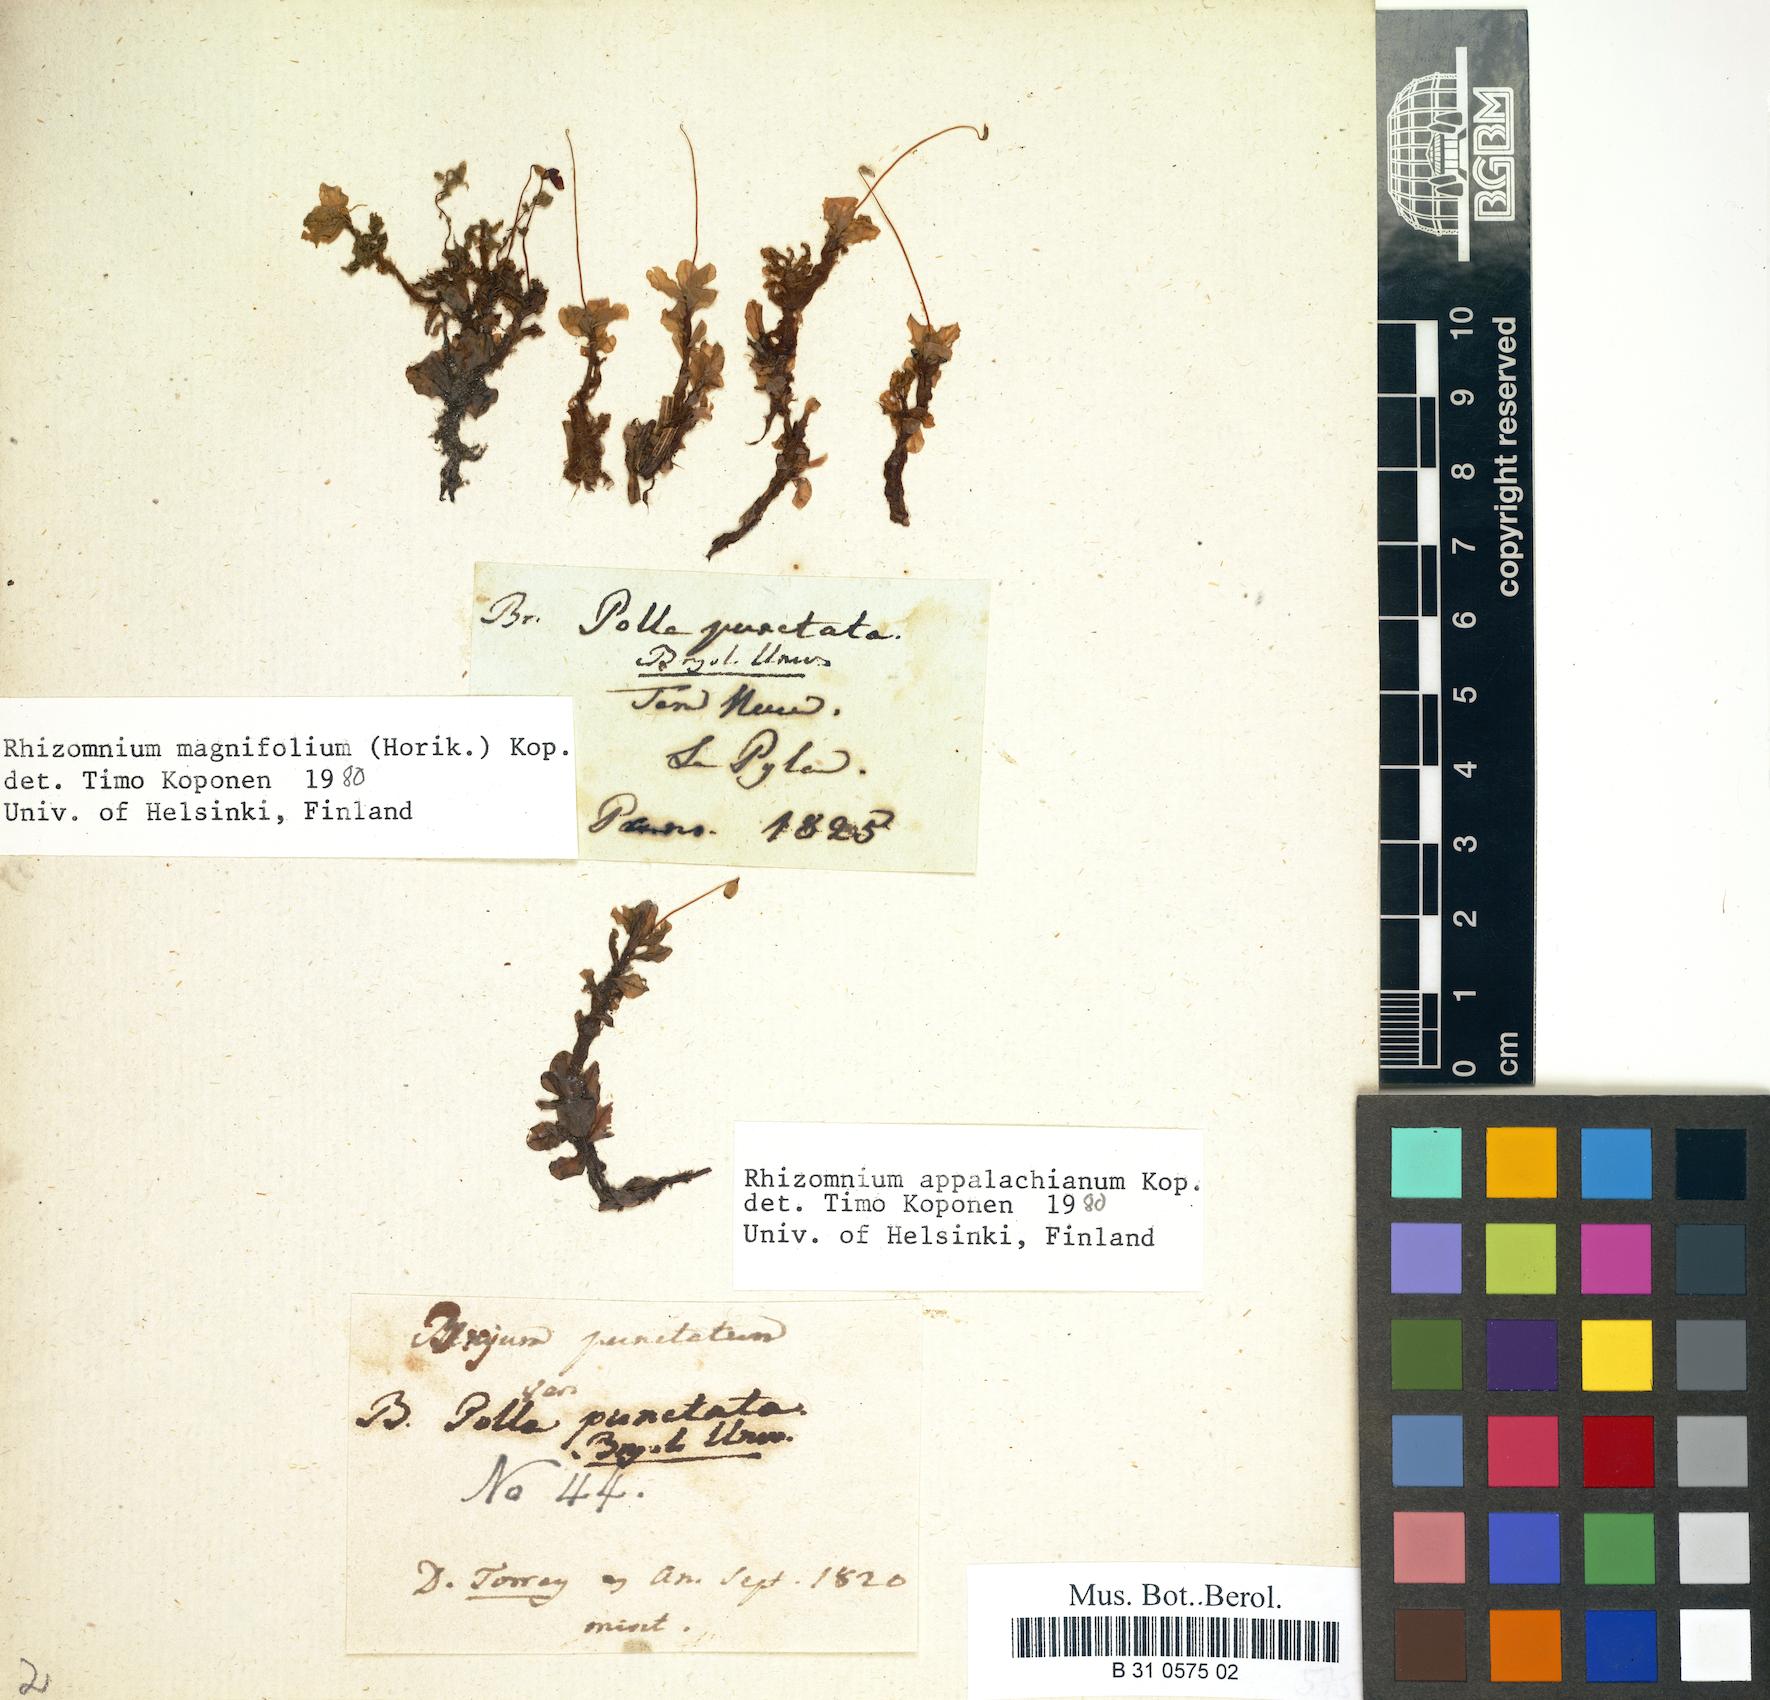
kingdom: Plantae
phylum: Bryophyta
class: Bryopsida
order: Bryales
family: Mniaceae
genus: Rhizomnium
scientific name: Rhizomnium punctatum
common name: Dotted leafy moss
